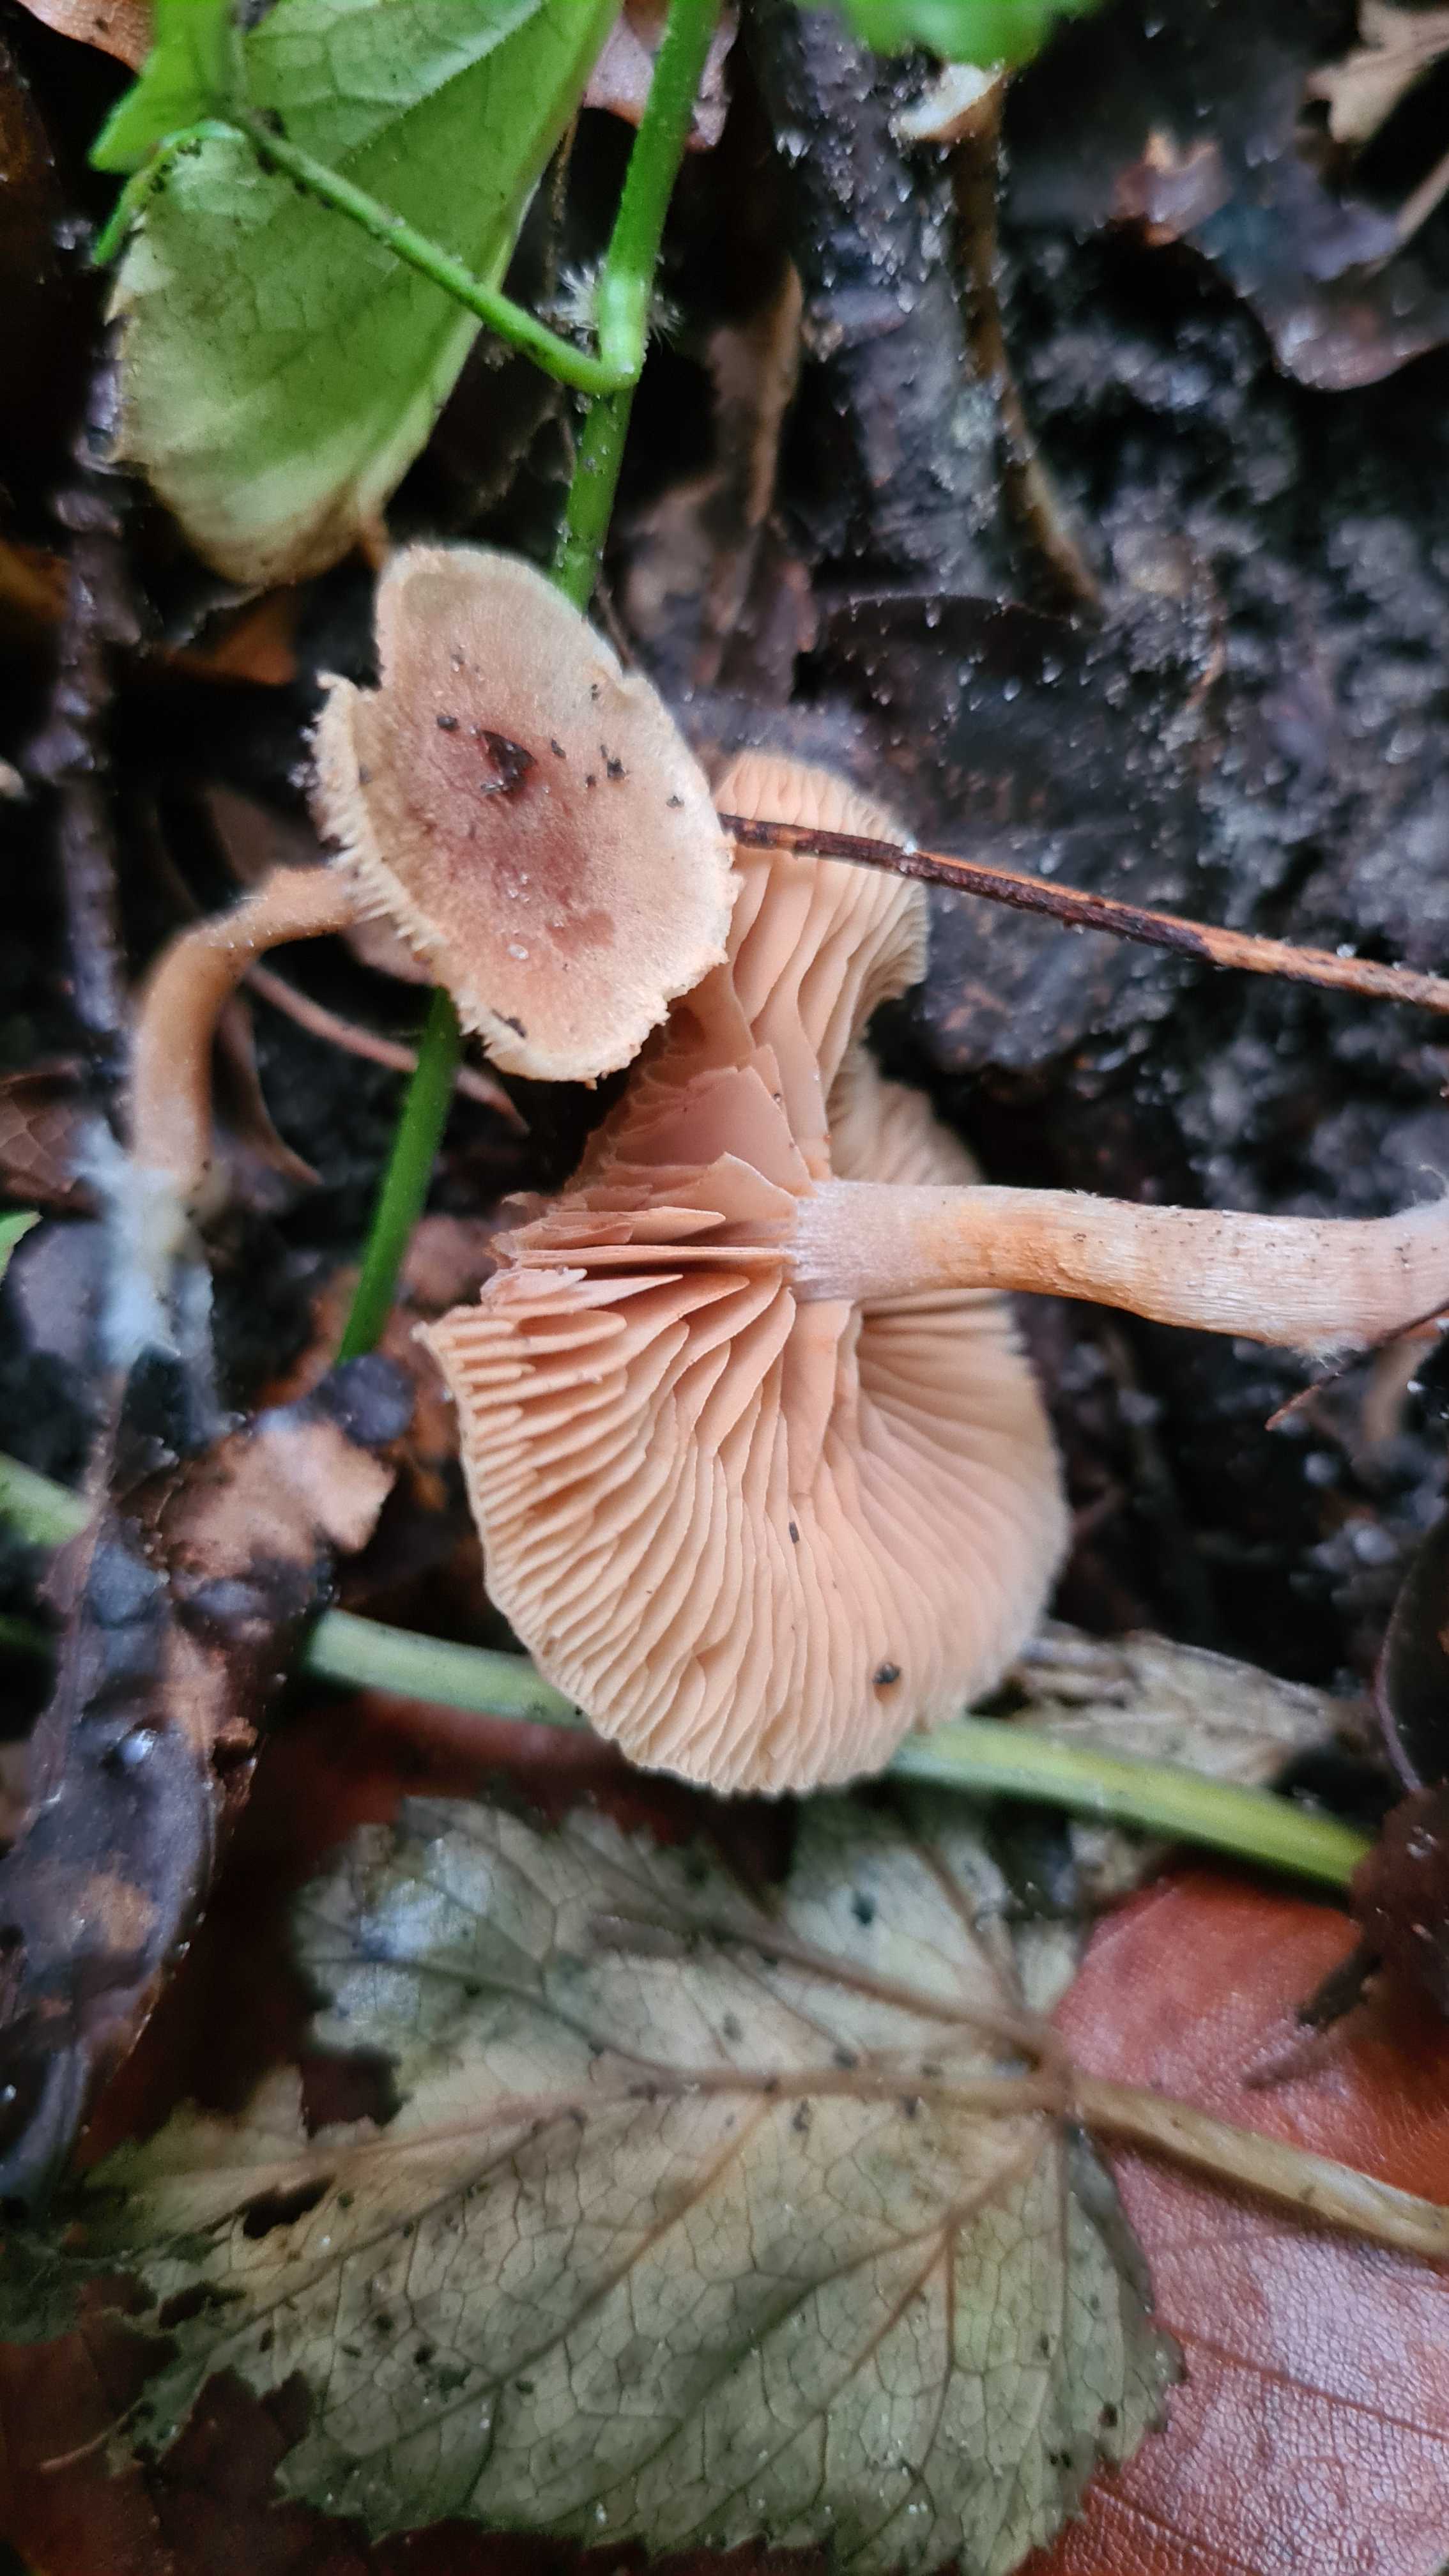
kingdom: Fungi
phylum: Basidiomycota
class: Agaricomycetes
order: Agaricales
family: Tubariaceae
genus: Tubaria
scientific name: Tubaria furfuracea
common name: kliddet fnughat
